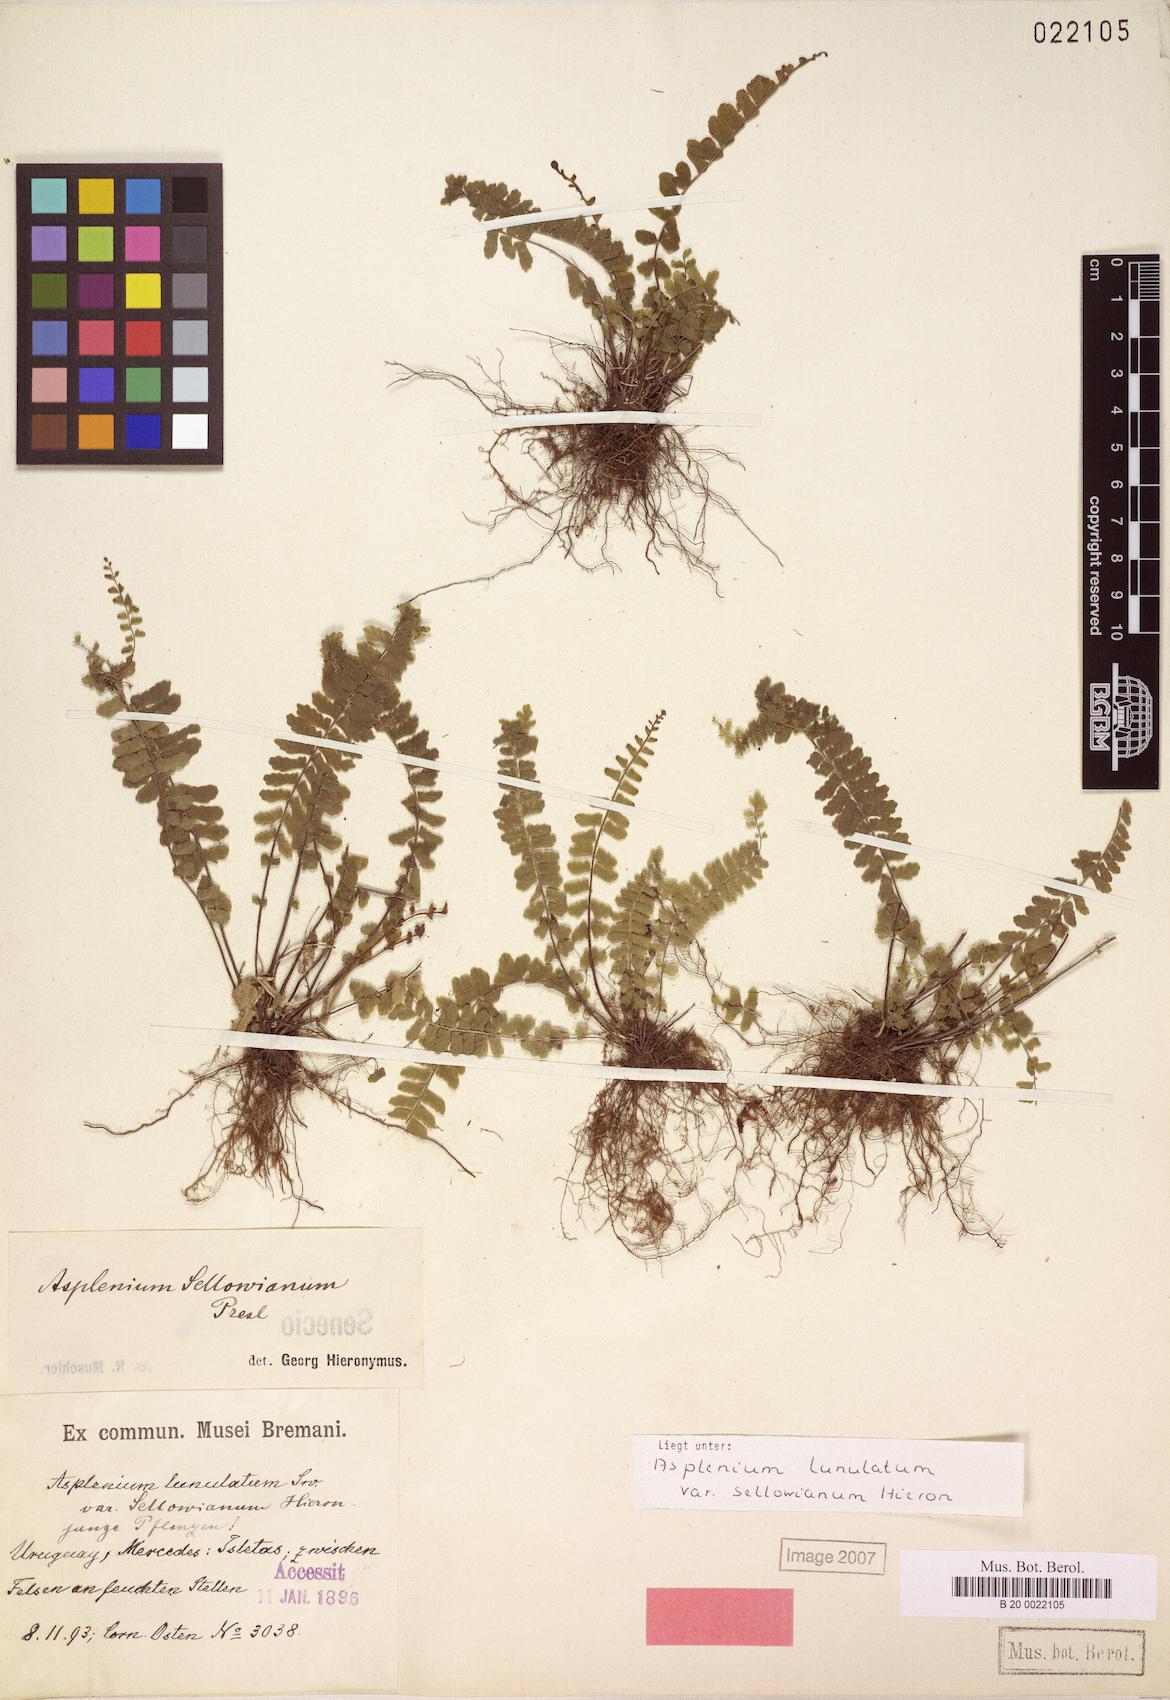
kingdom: Plantae
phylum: Tracheophyta
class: Polypodiopsida
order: Polypodiales
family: Aspleniaceae
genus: Asplenium
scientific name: Asplenium sellowianum
